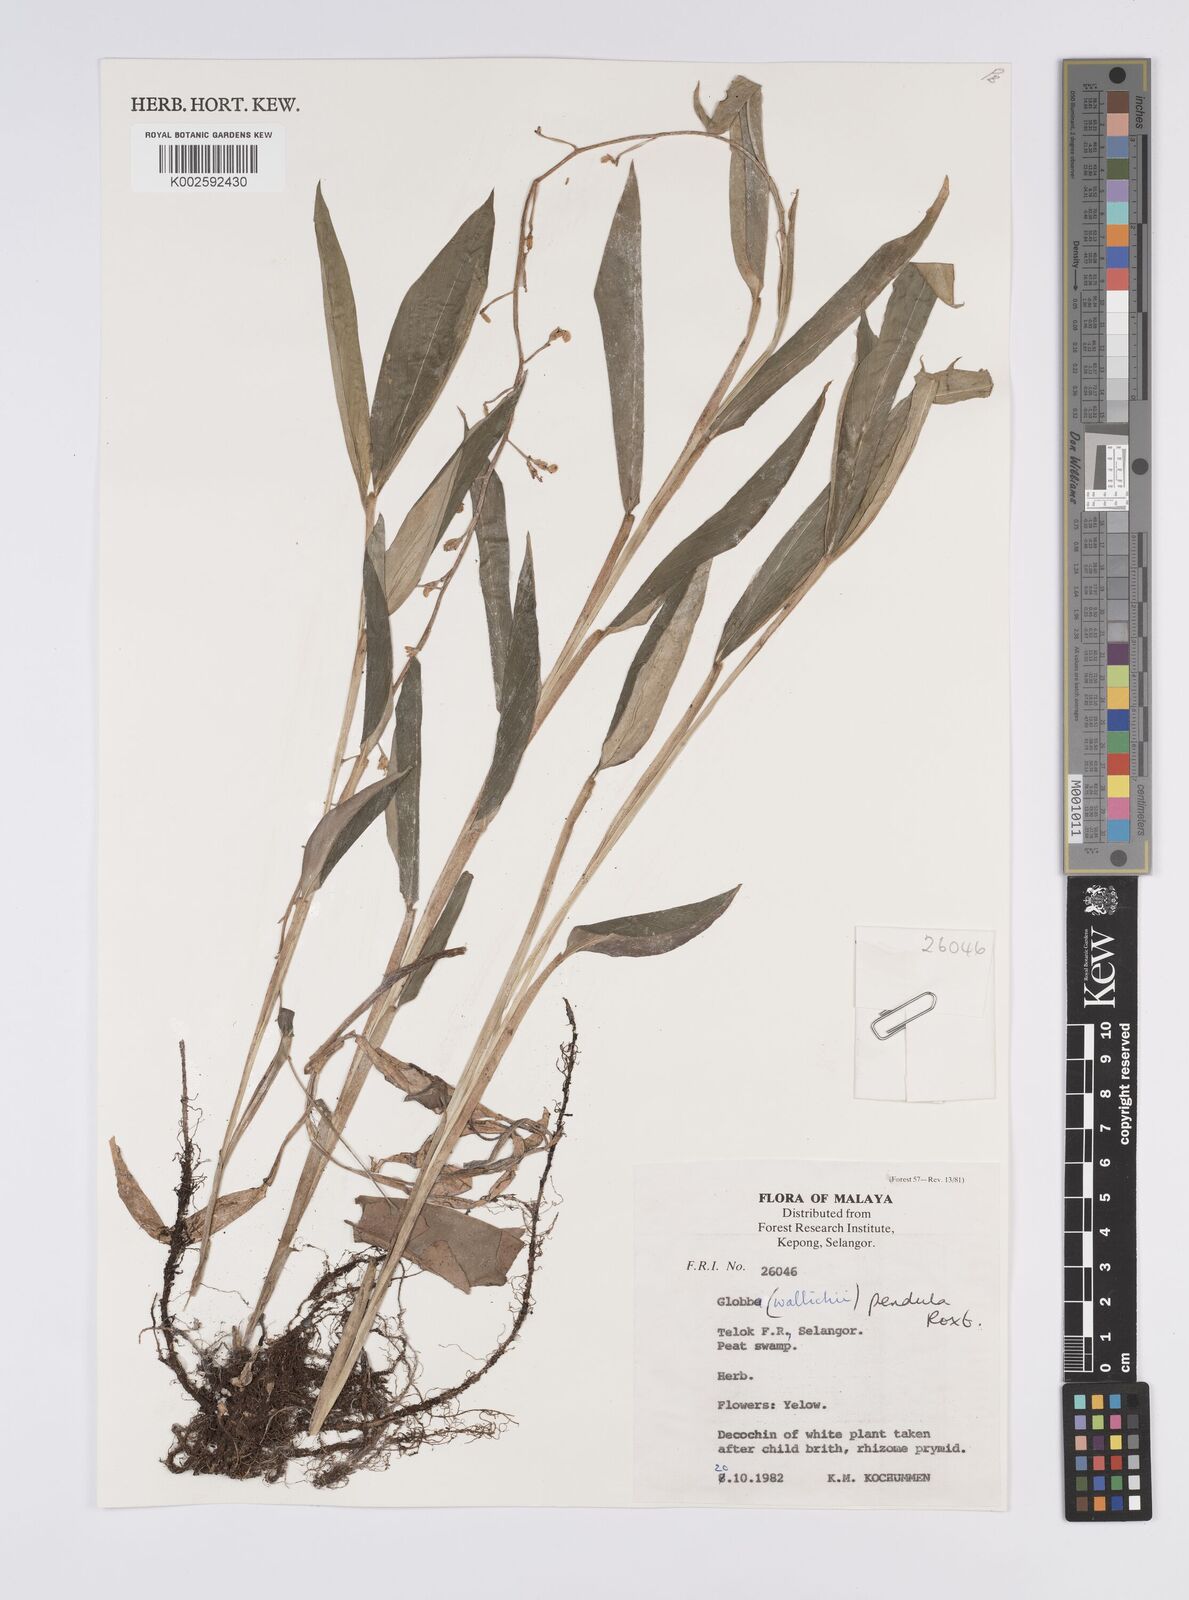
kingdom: Plantae
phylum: Tracheophyta
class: Liliopsida
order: Zingiberales
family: Zingiberaceae
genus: Globba
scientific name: Globba pendula
